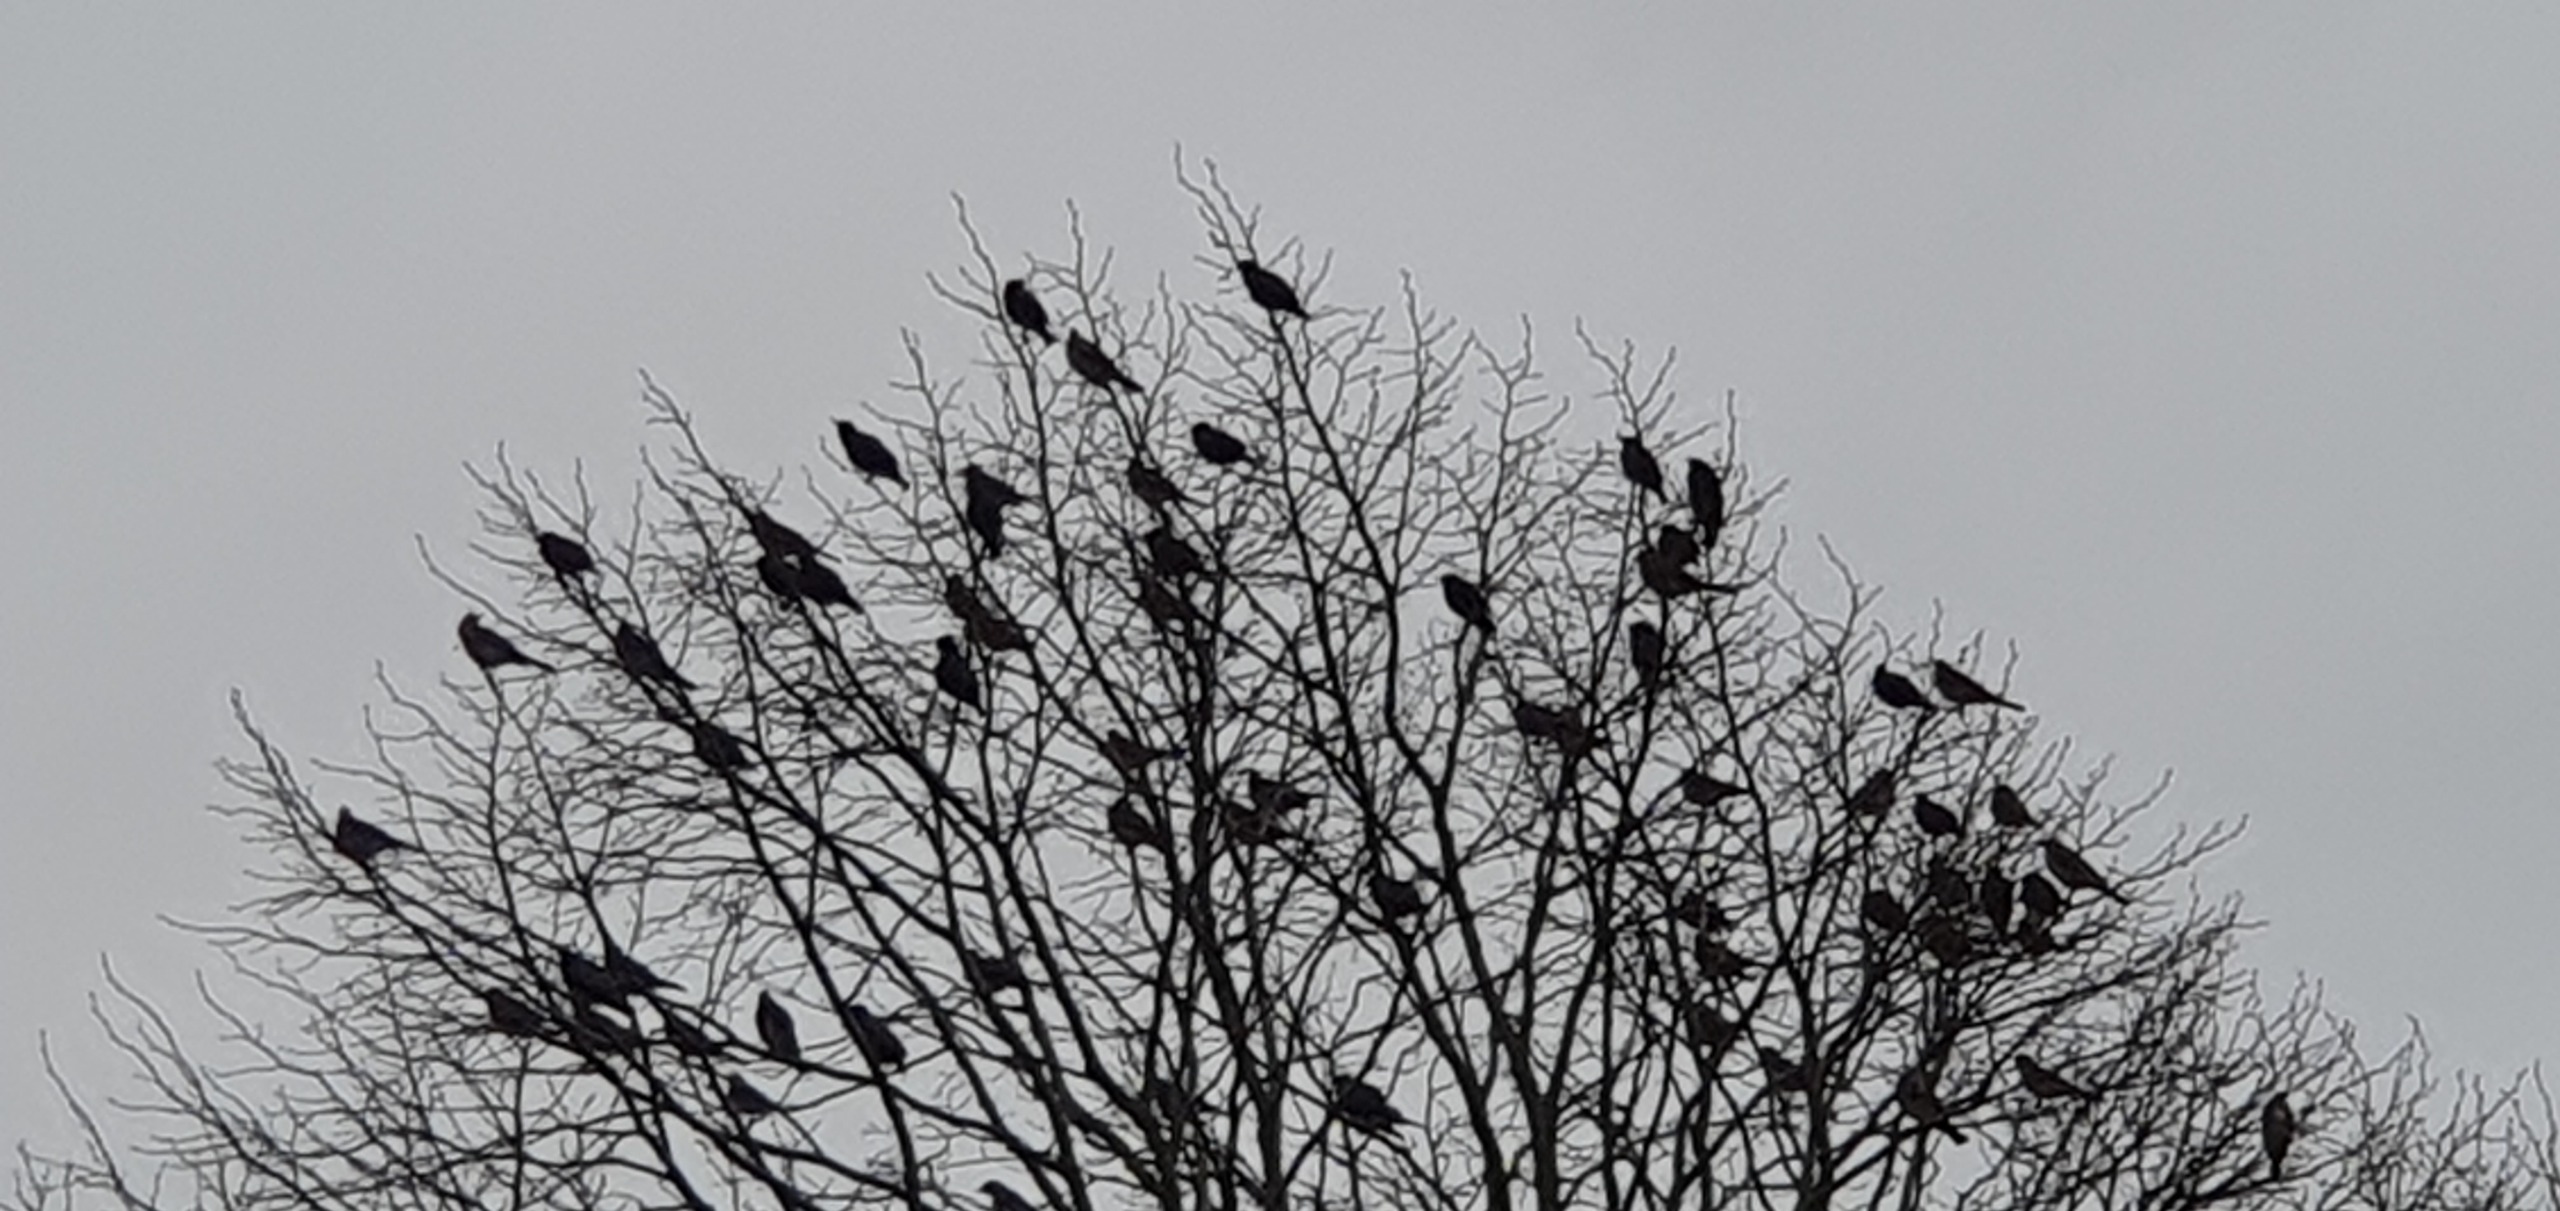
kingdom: Animalia
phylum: Chordata
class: Aves
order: Passeriformes
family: Turdidae
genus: Turdus
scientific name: Turdus pilaris
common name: Sjagger
